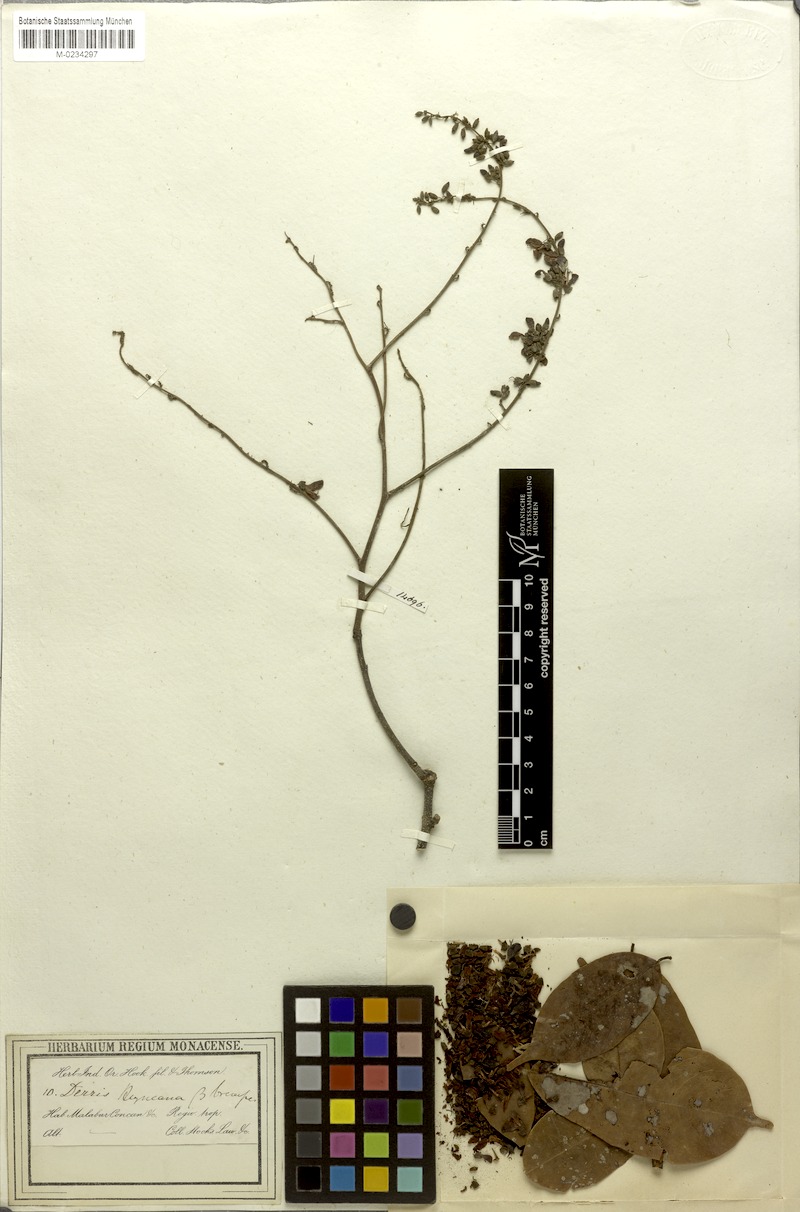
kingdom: Plantae
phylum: Tracheophyta
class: Magnoliopsida
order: Fabales
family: Fabaceae
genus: Derris
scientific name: Derris brevipes
